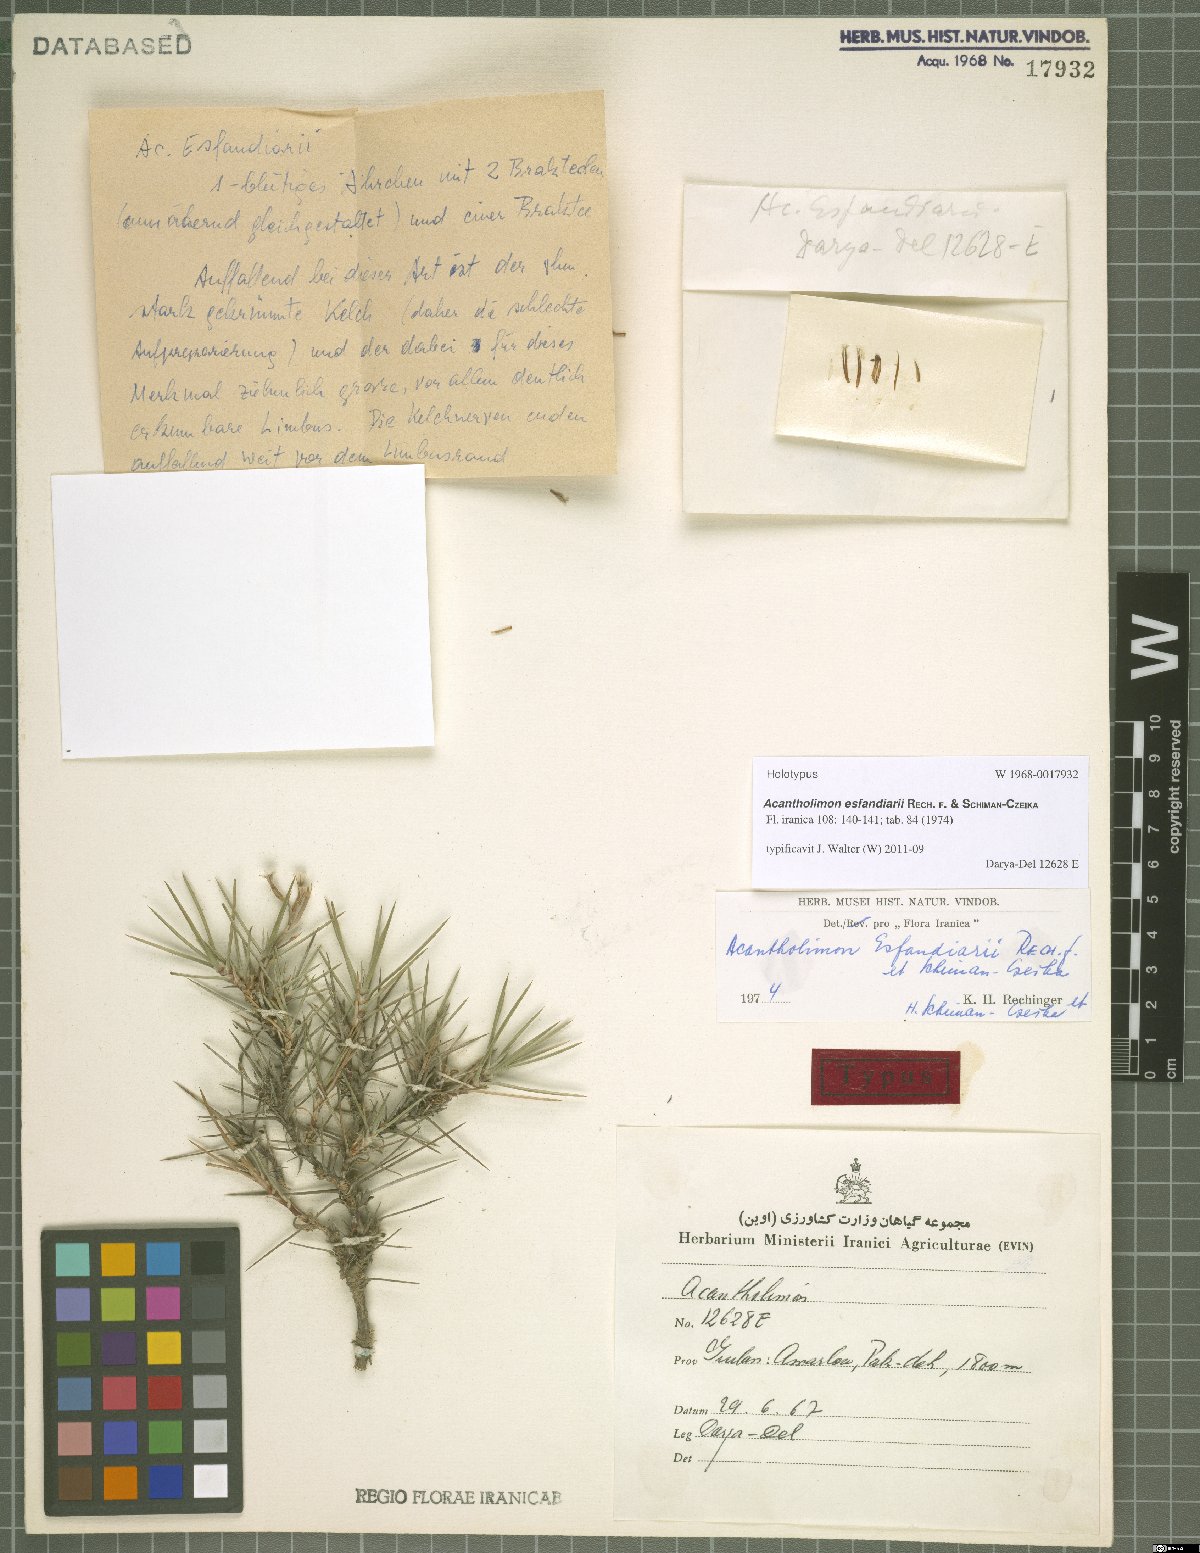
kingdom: Plantae
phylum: Tracheophyta
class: Magnoliopsida
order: Caryophyllales
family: Plumbaginaceae
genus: Acantholimon
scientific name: Acantholimon esfandiarii
